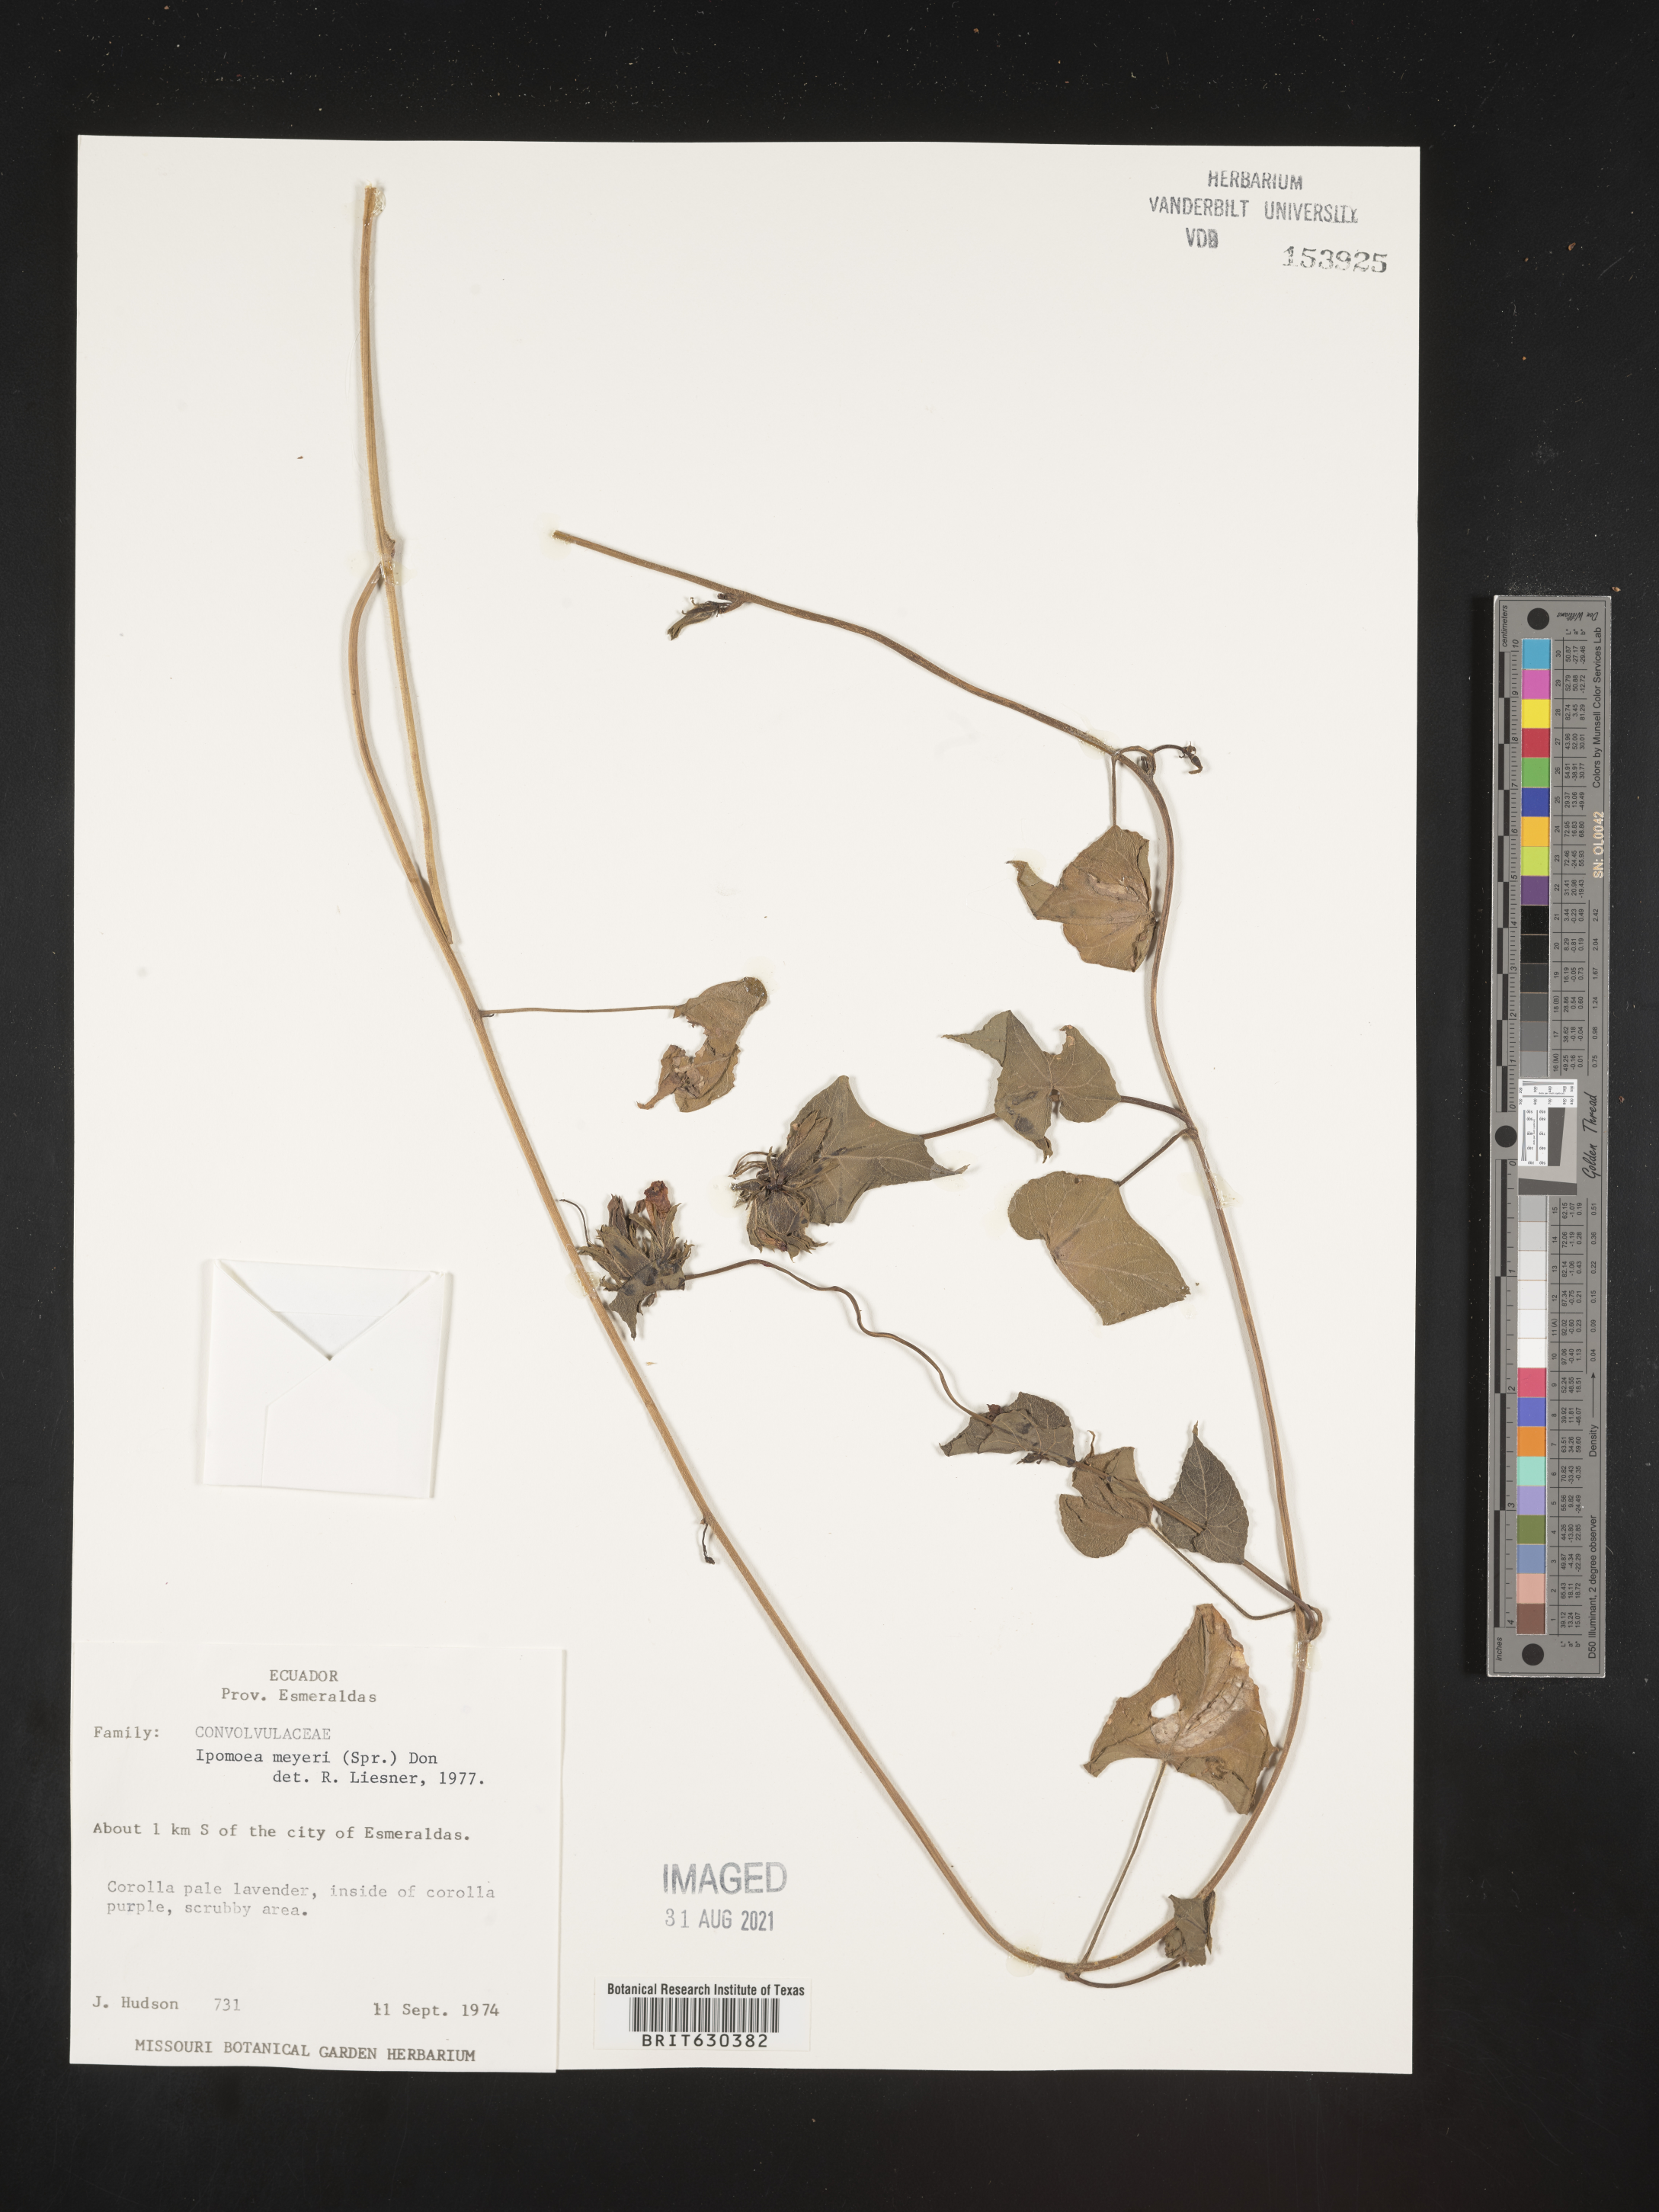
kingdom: Plantae
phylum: Tracheophyta
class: Magnoliopsida
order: Solanales
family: Convolvulaceae
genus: Ipomoea
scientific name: Ipomoea meyeri
